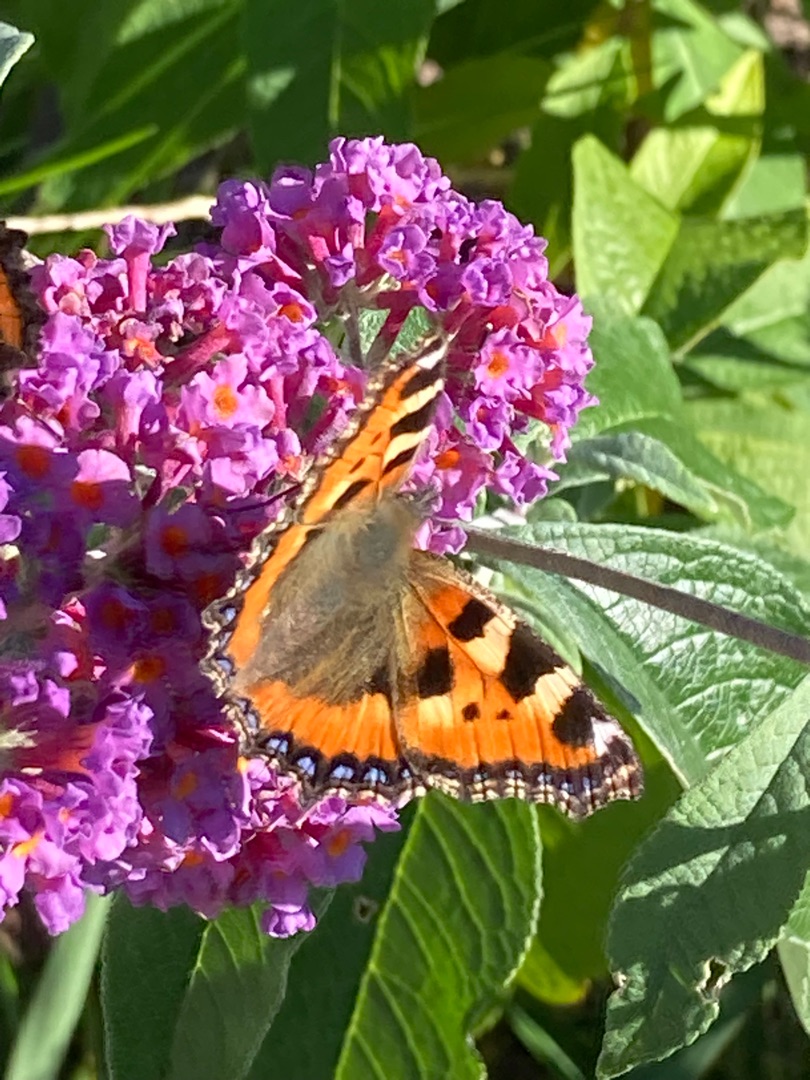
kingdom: Animalia
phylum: Arthropoda
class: Insecta
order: Lepidoptera
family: Nymphalidae
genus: Aglais
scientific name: Aglais urticae
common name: Nældens takvinge
